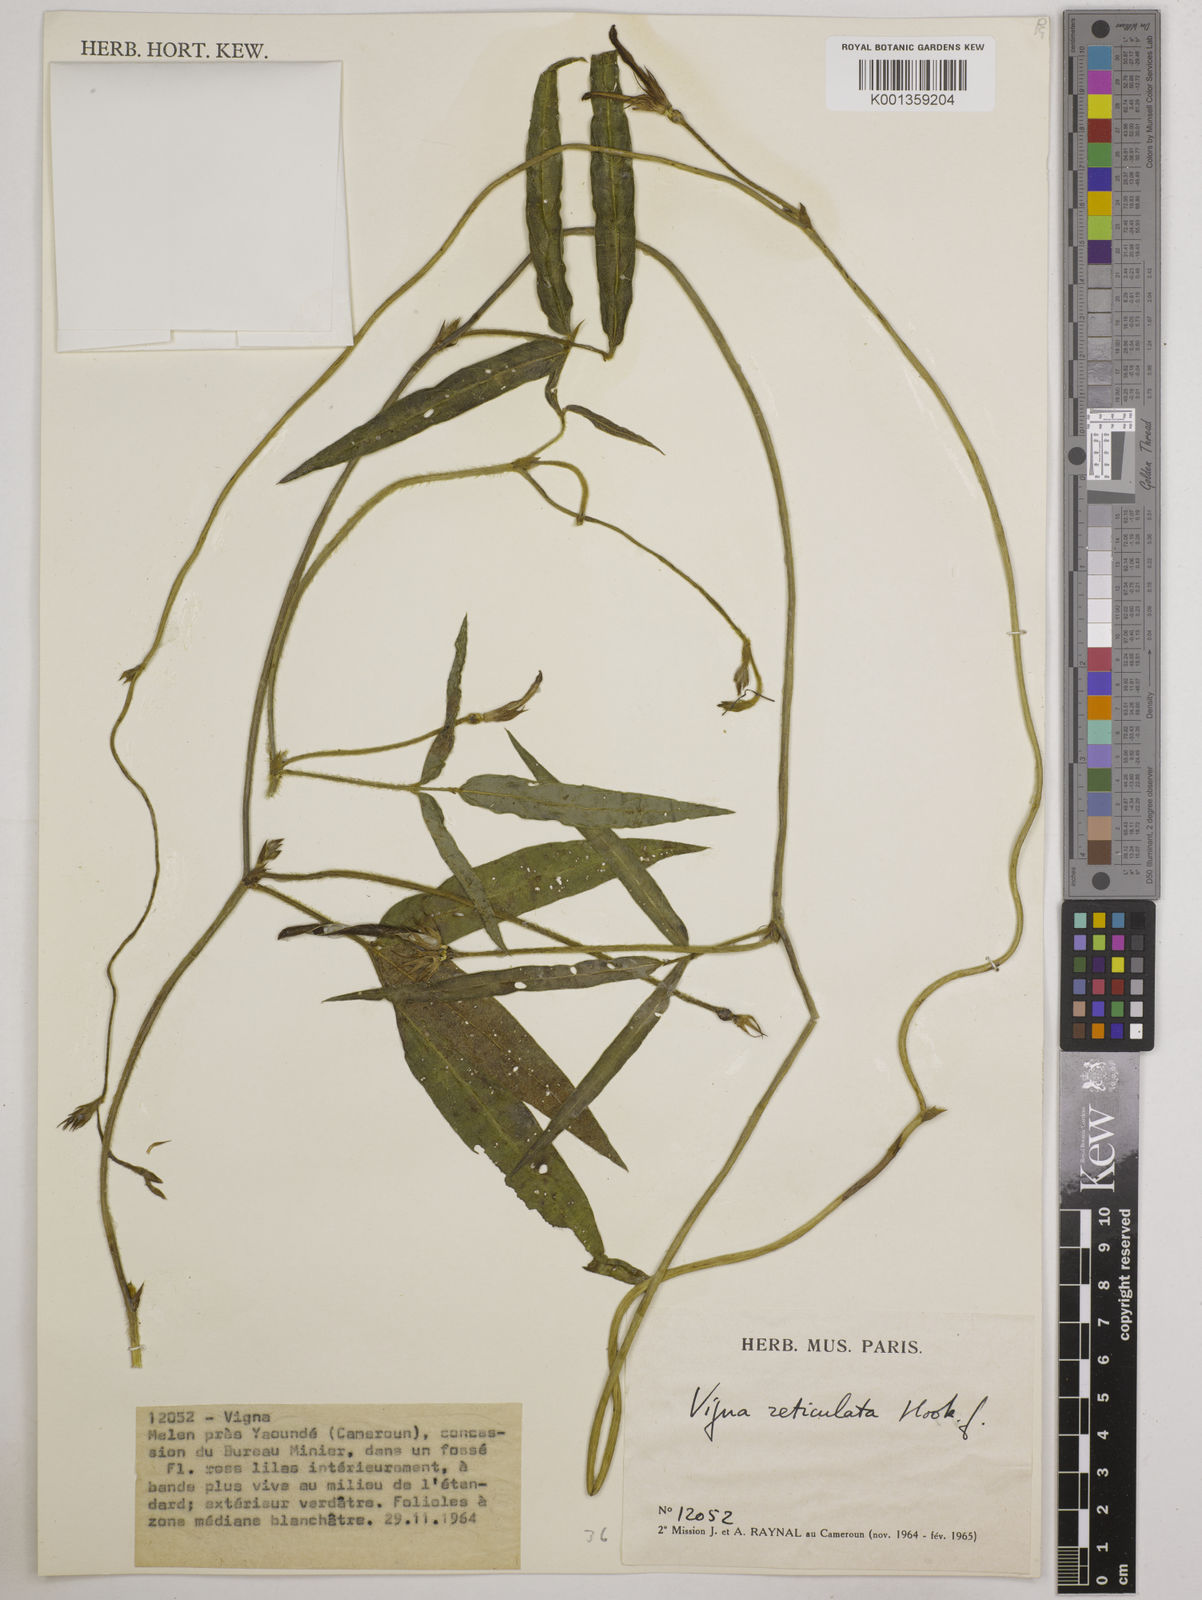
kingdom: Plantae
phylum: Tracheophyta
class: Magnoliopsida
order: Fabales
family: Fabaceae
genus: Vigna
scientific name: Vigna reticulata
